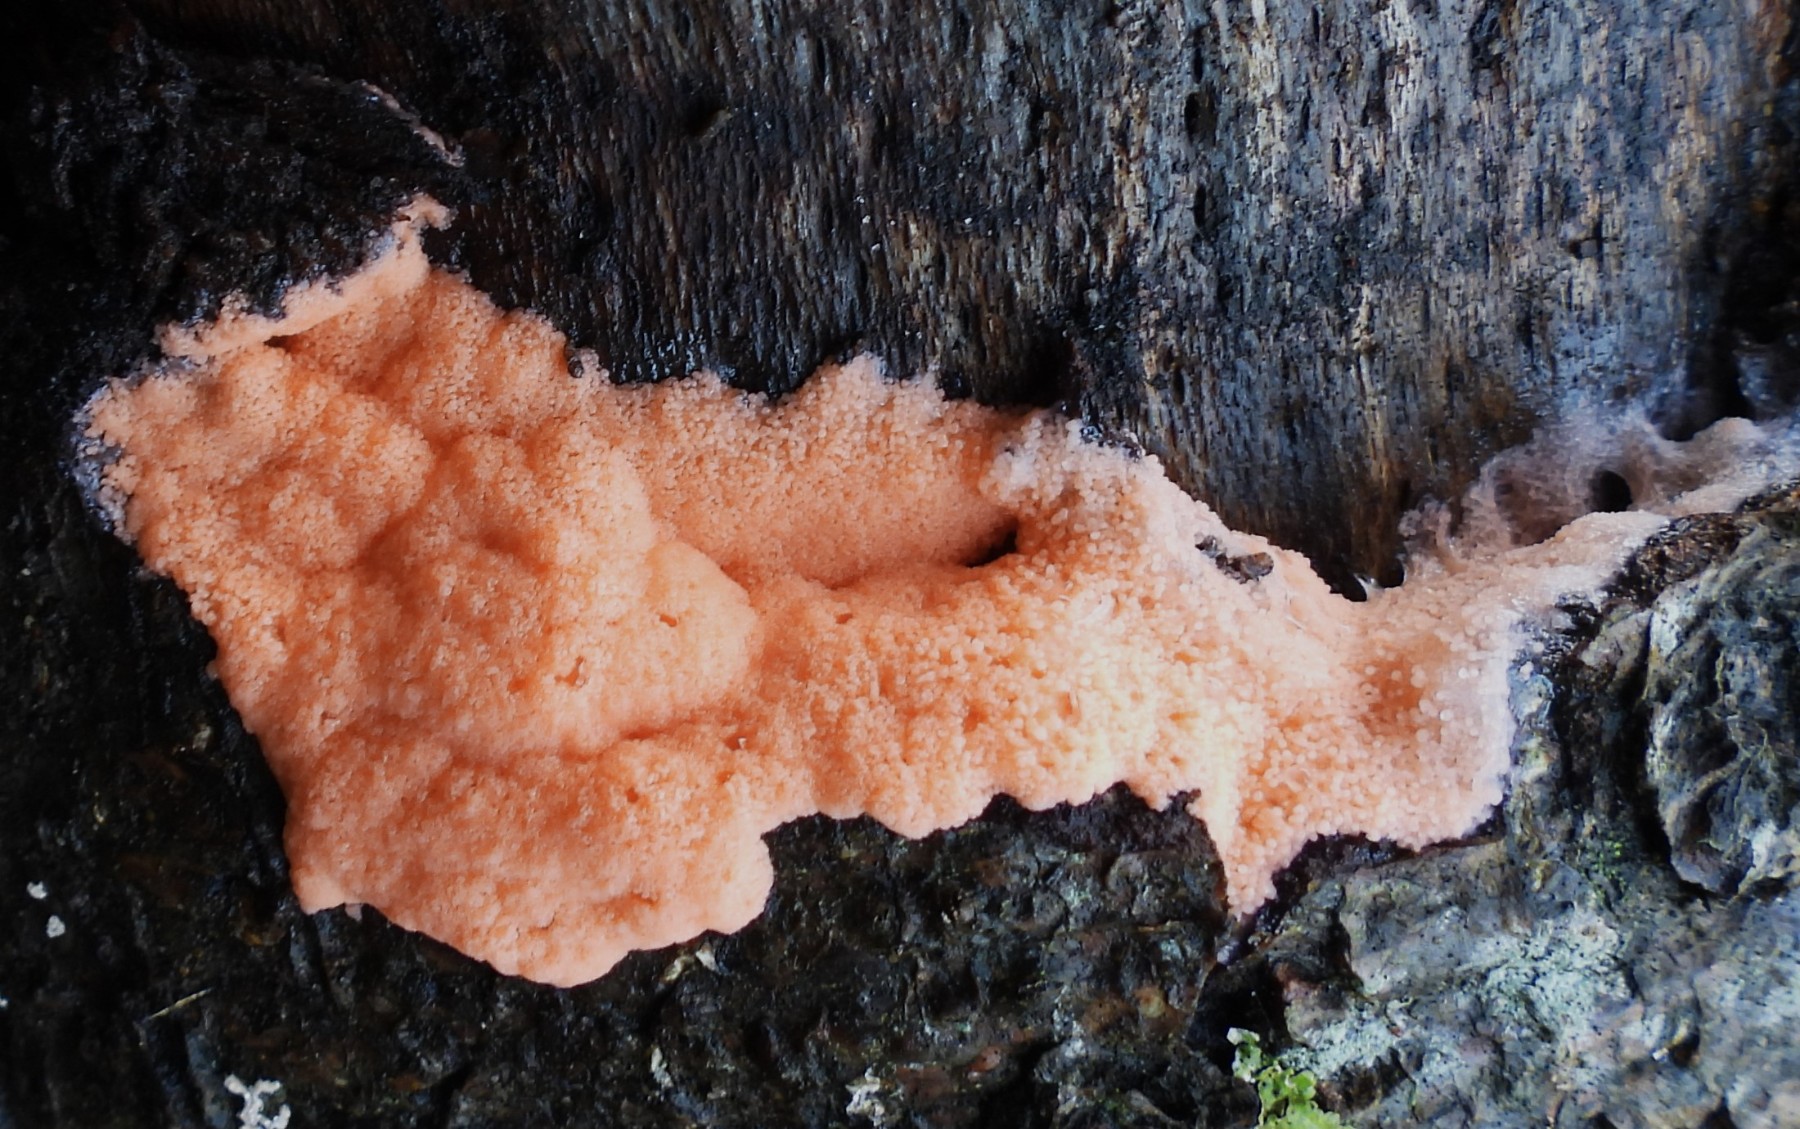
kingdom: Protozoa
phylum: Mycetozoa
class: Myxomycetes
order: Trichiales
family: Dictydiaethaliaceae
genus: Dictydiaethalium
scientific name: Dictydiaethalium plumbeum
